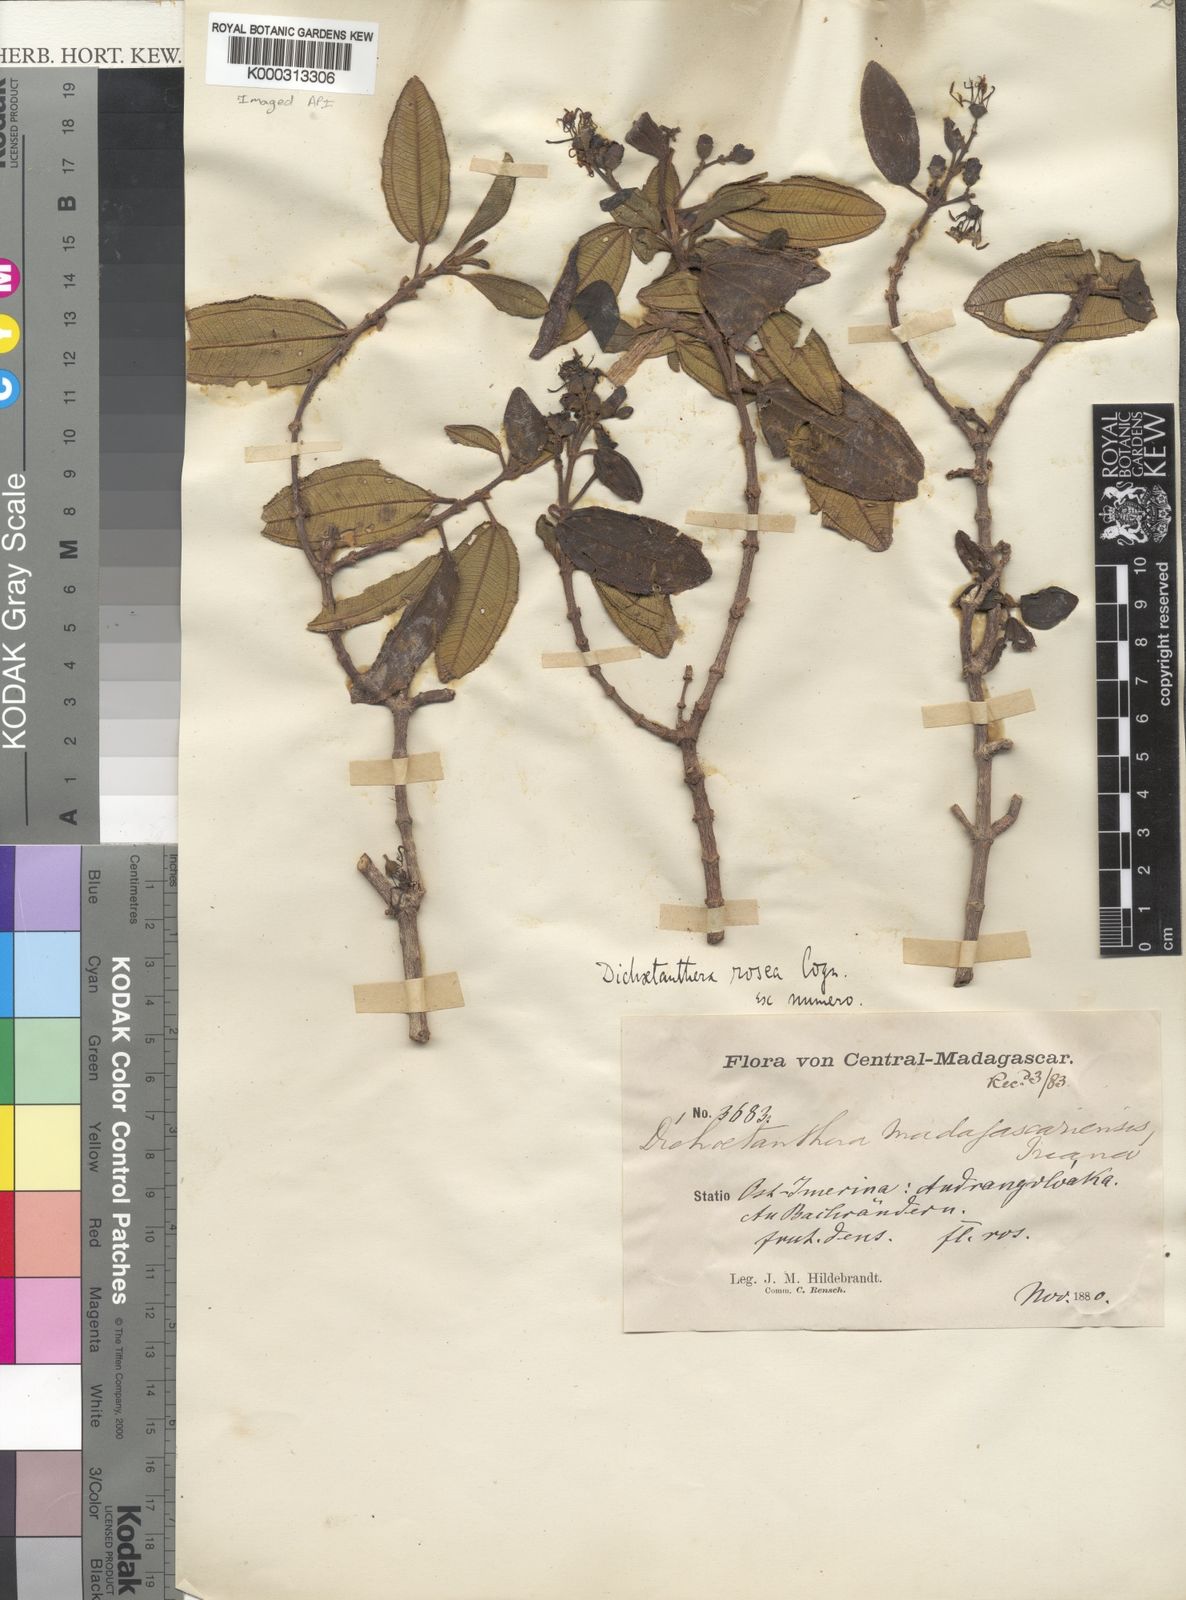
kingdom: Plantae
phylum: Tracheophyta
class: Magnoliopsida
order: Myrtales
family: Melastomataceae
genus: Dichaetanthera
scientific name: Dichaetanthera
